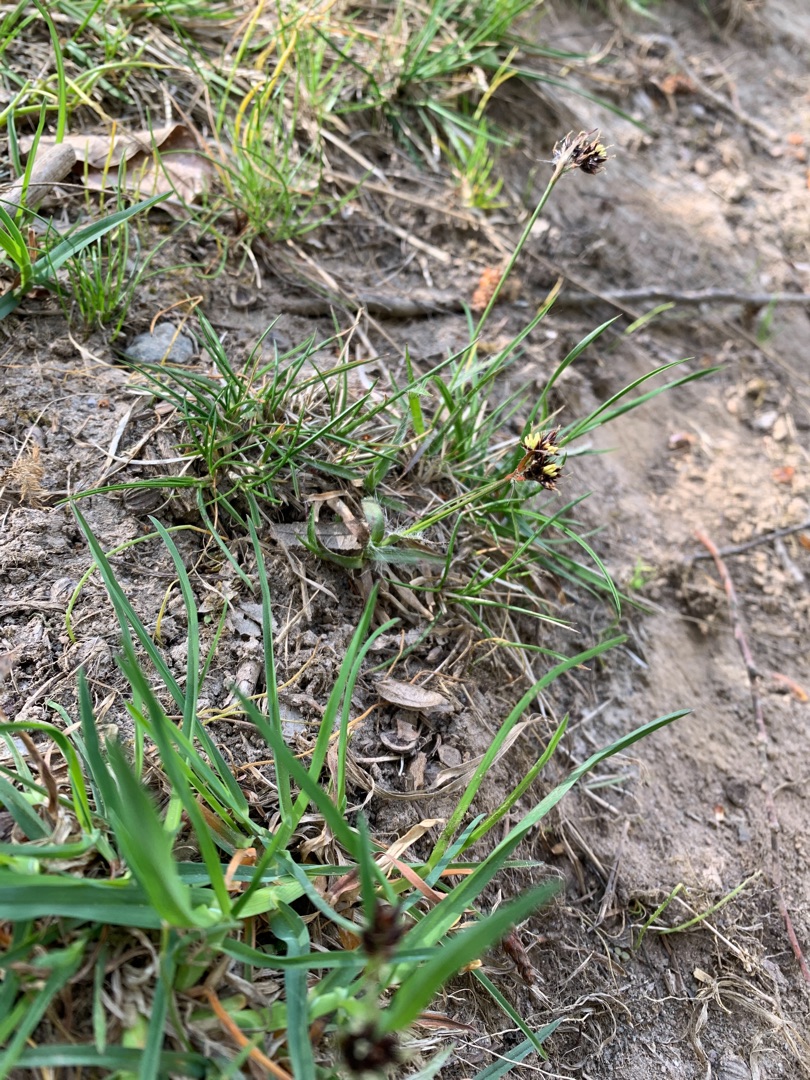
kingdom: Plantae
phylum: Tracheophyta
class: Liliopsida
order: Poales
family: Juncaceae
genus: Luzula
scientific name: Luzula campestris
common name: Mark-frytle
